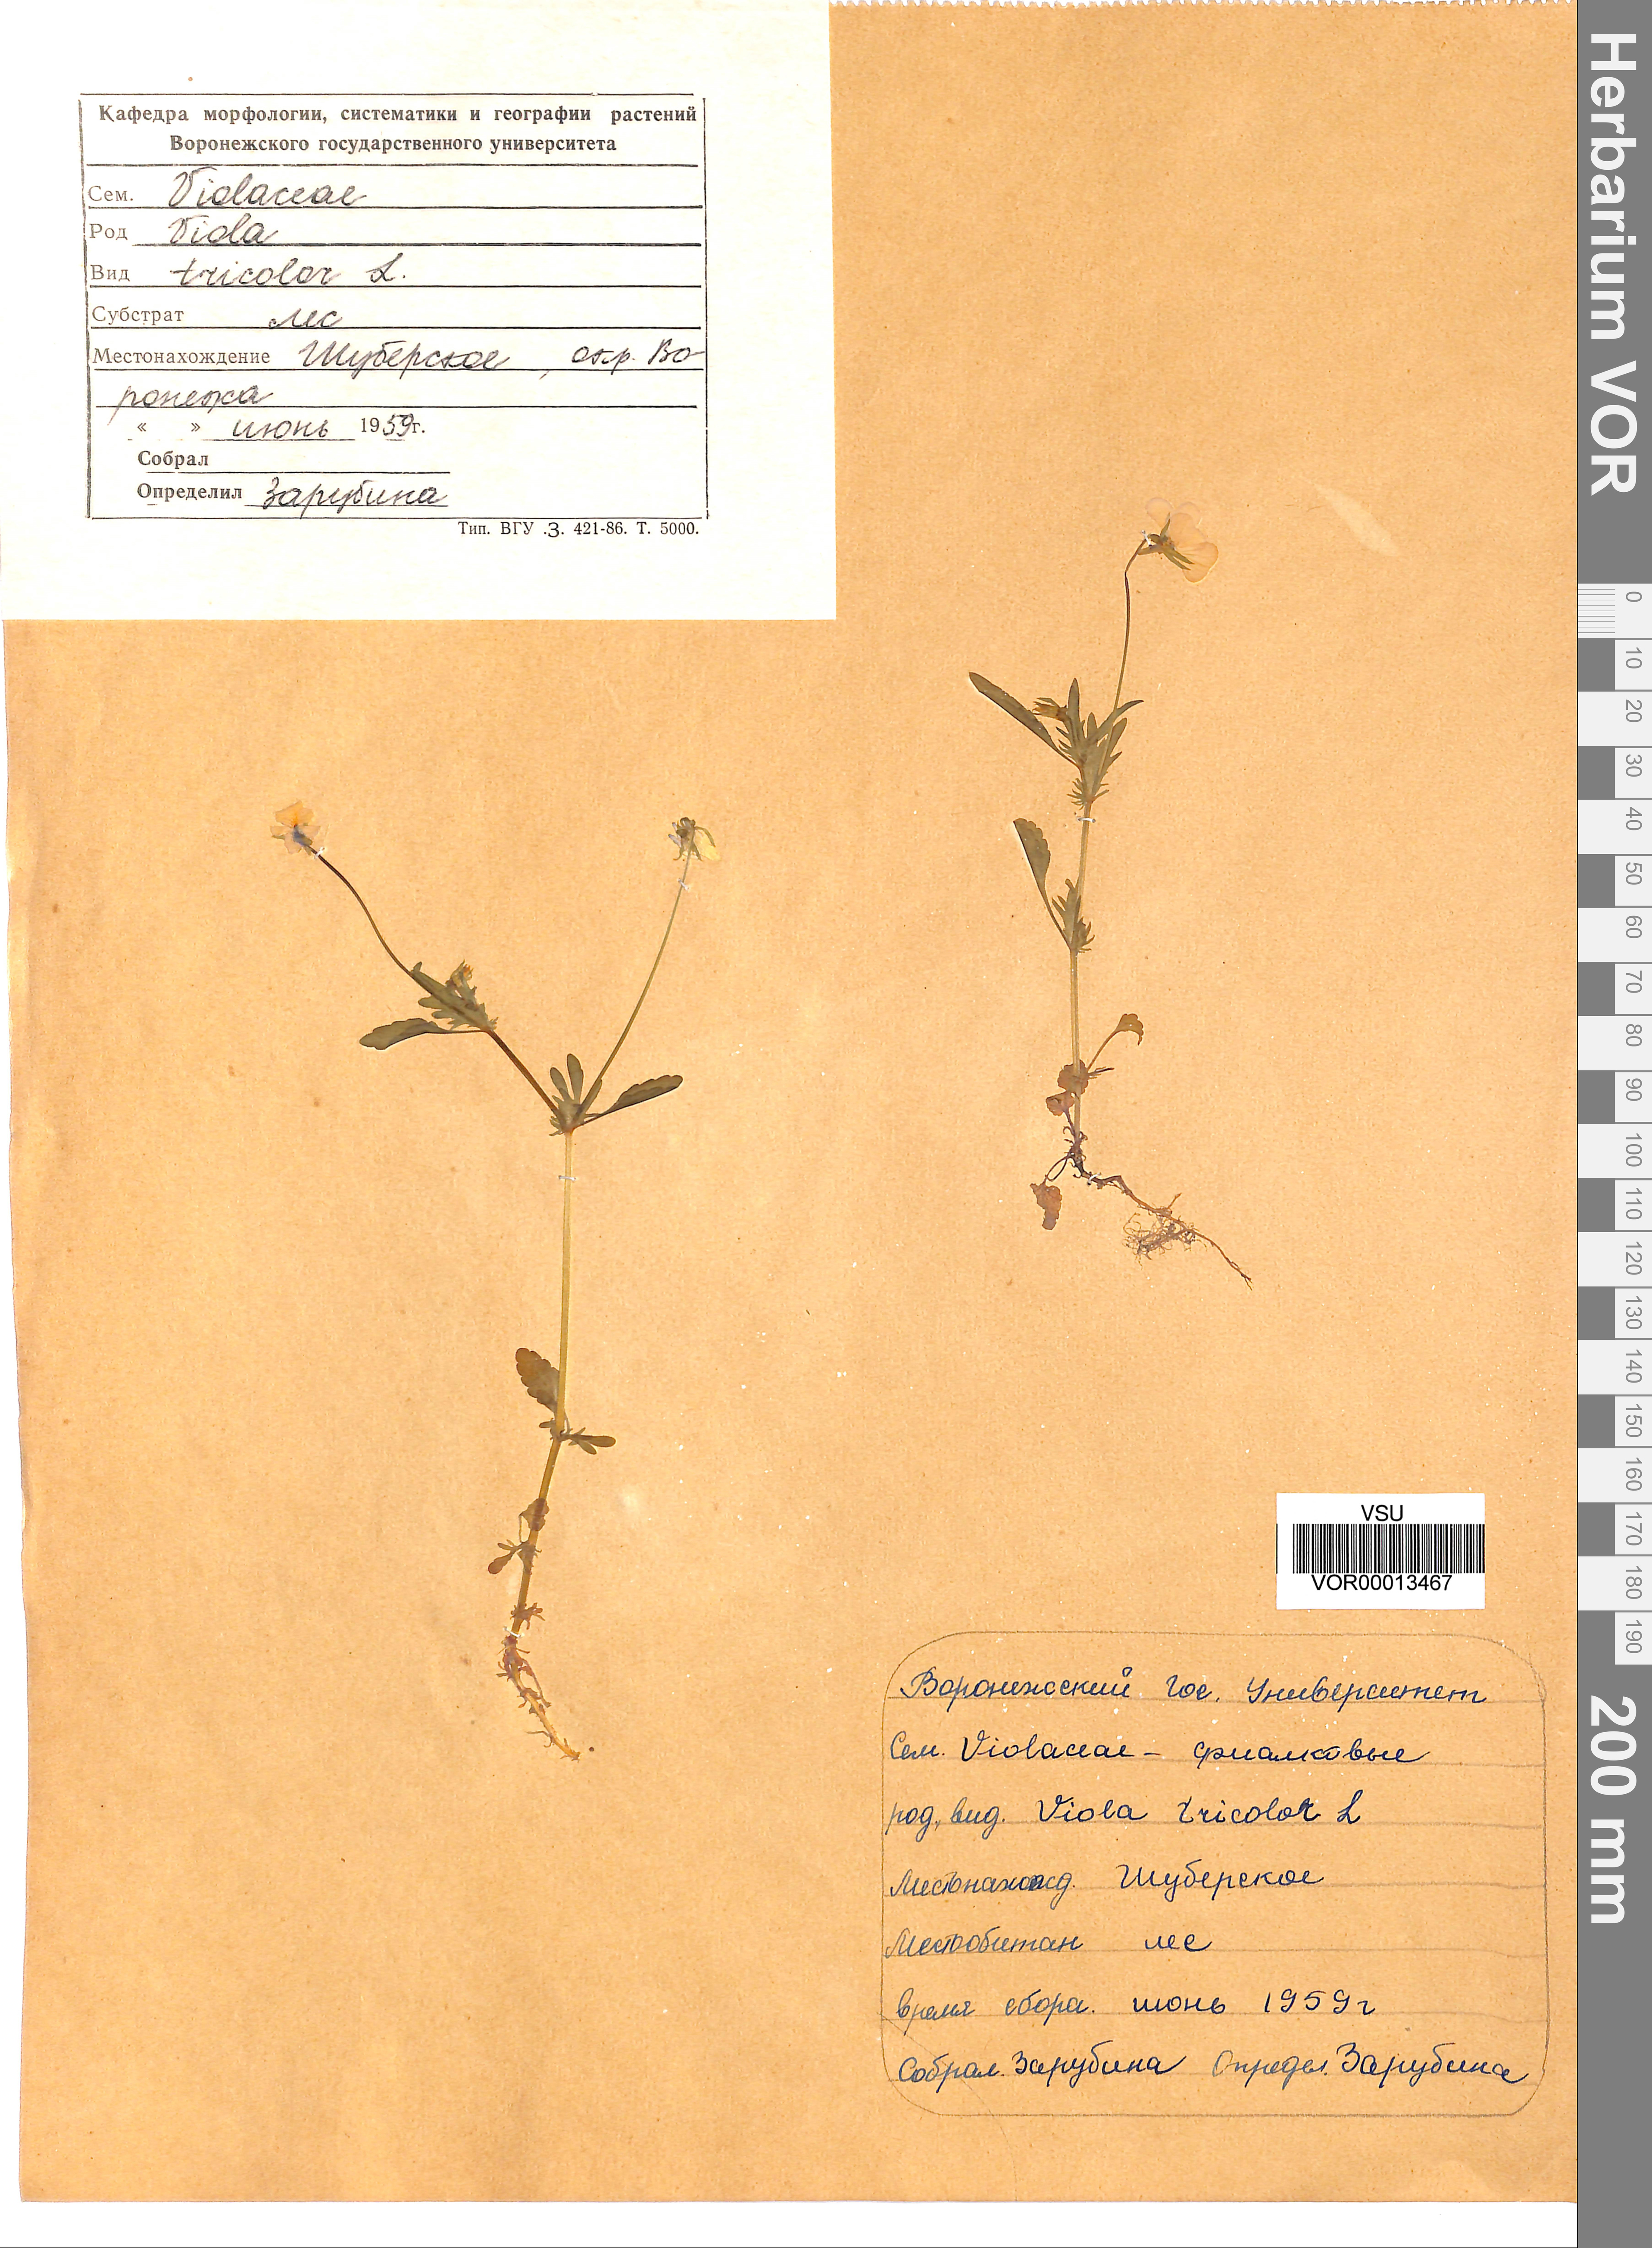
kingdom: Plantae
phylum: Tracheophyta
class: Magnoliopsida
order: Malpighiales
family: Violaceae
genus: Viola
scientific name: Viola tricolor
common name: Pansy
